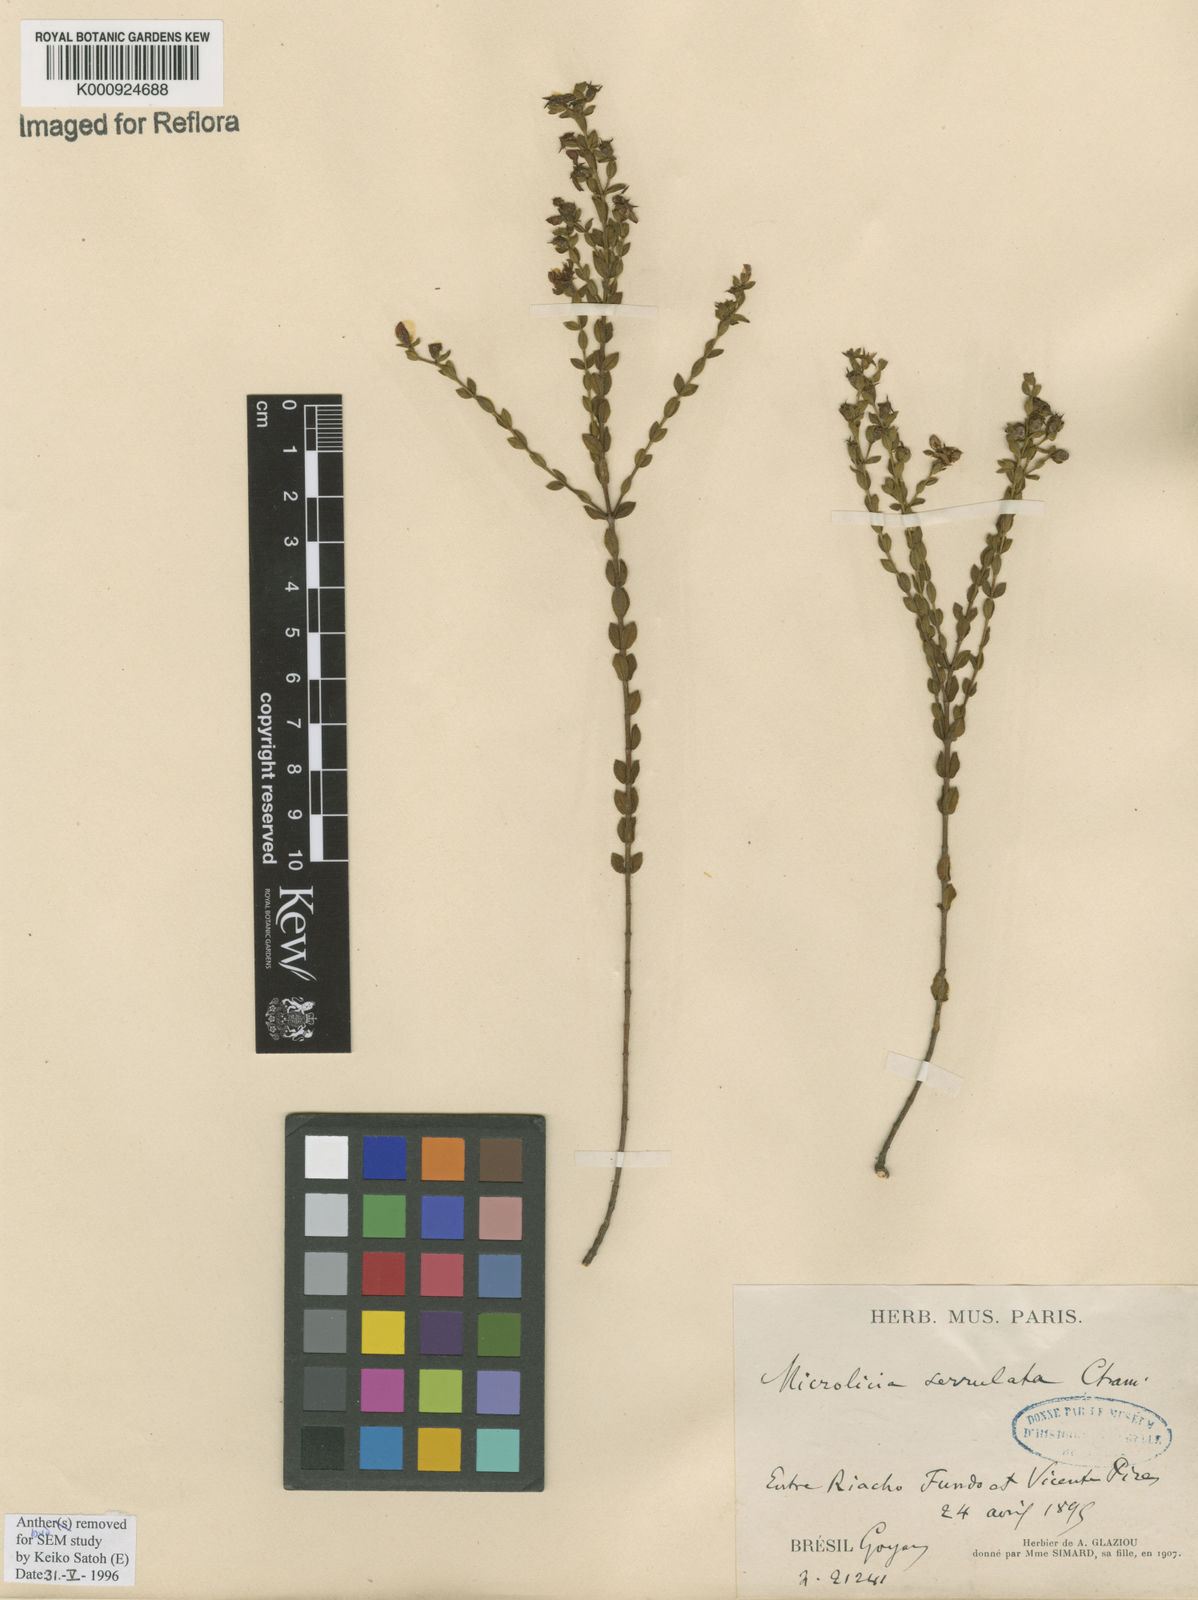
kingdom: Plantae
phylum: Tracheophyta
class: Magnoliopsida
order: Myrtales
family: Melastomataceae
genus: Microlicia
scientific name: Microlicia serrulata
